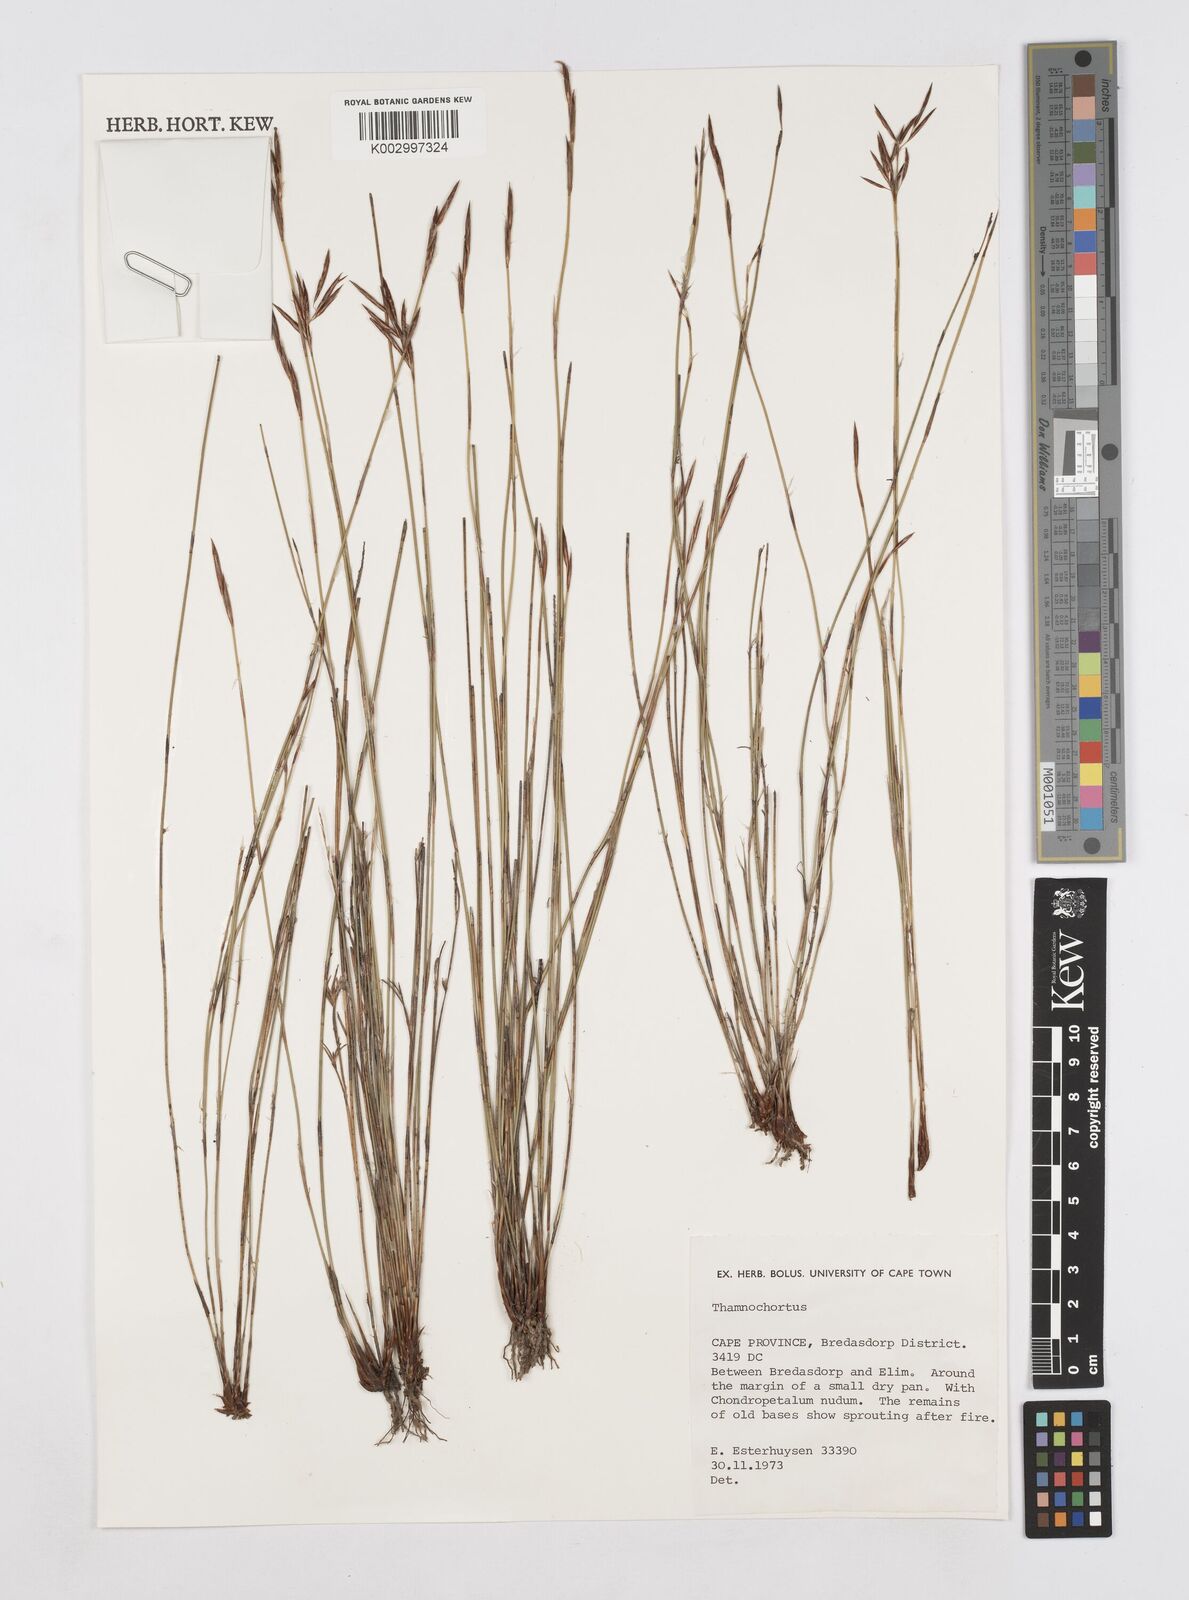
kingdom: Plantae
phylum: Tracheophyta
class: Liliopsida
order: Poales
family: Restionaceae
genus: Thamnochortus
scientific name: Thamnochortus
